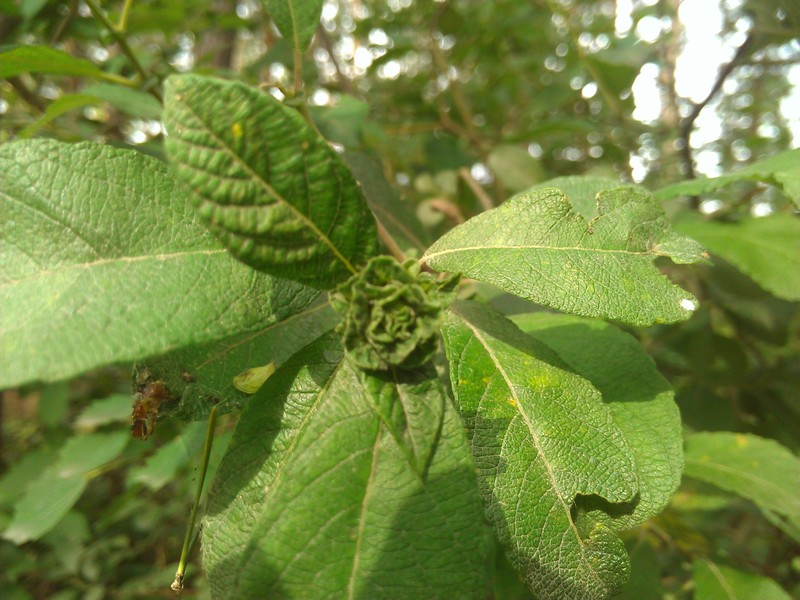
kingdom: Animalia
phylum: Arthropoda
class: Insecta
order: Diptera
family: Cecidomyiidae
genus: Rabdophaga
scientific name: Rabdophaga rosaria
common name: Willow rose gall midge
